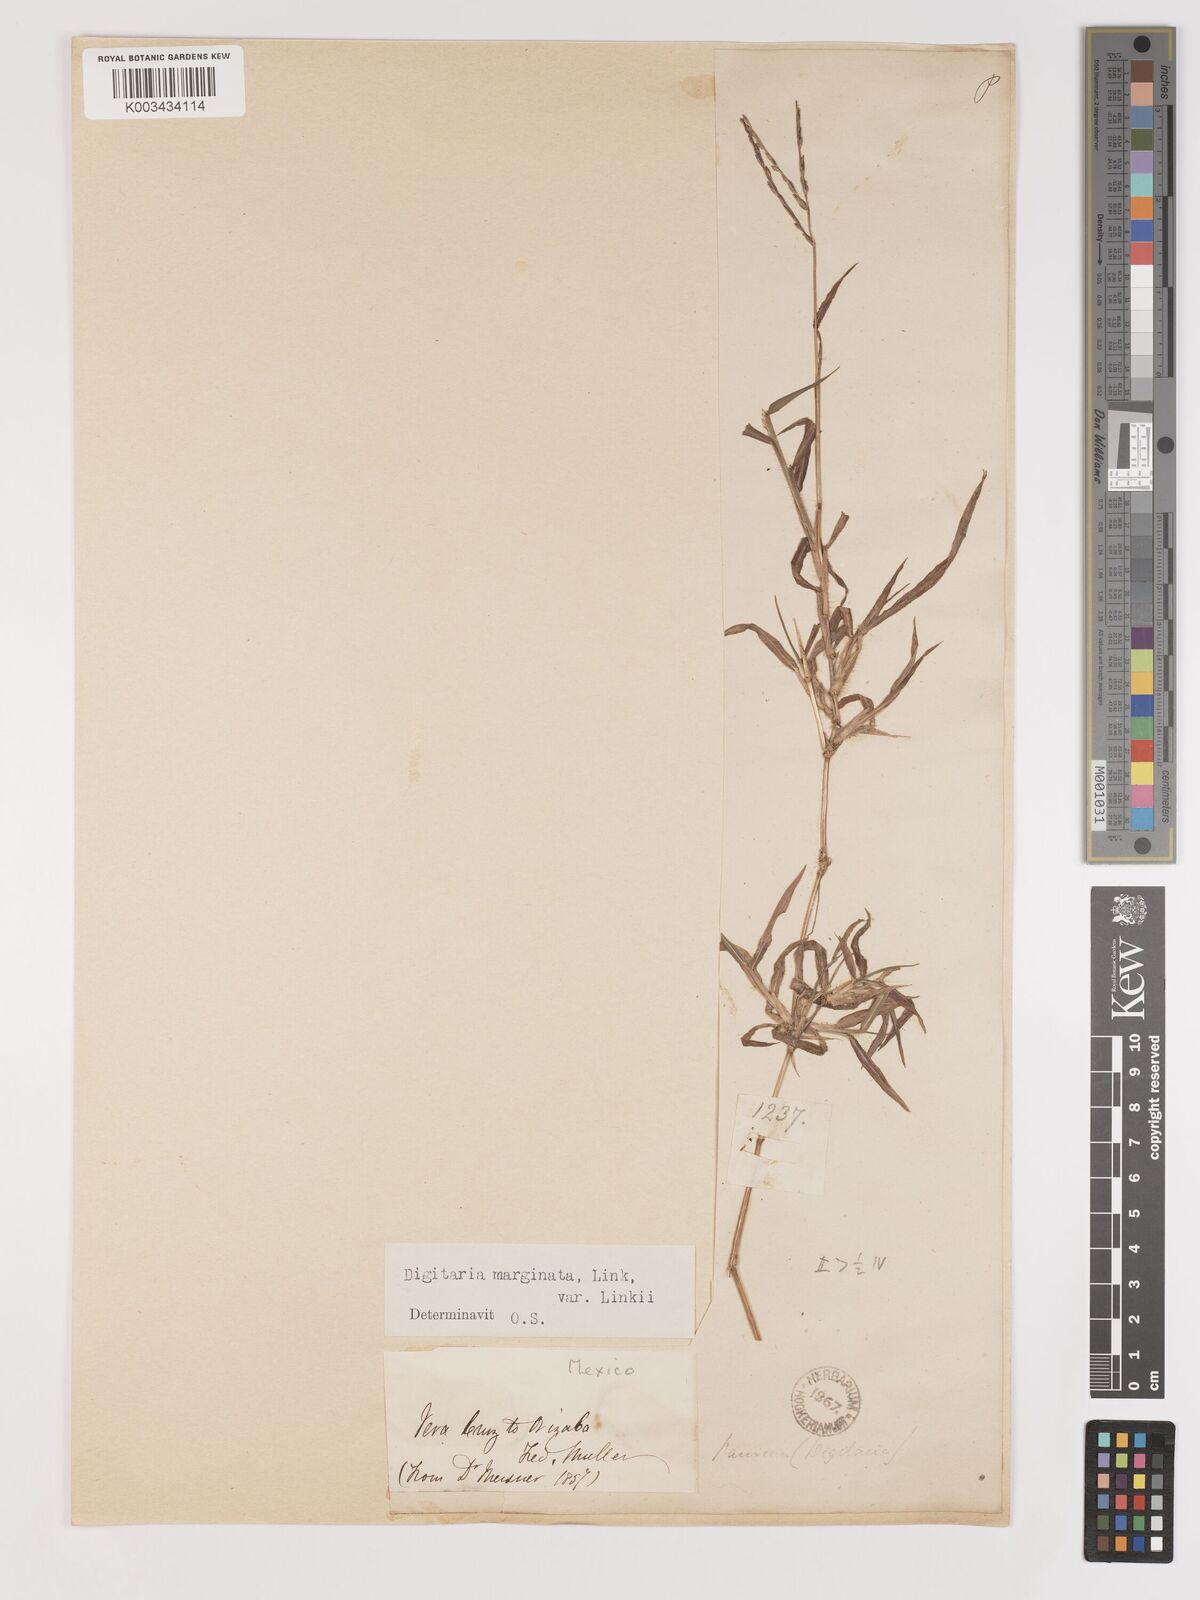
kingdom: Plantae
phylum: Tracheophyta
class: Liliopsida
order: Poales
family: Poaceae
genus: Digitaria
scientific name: Digitaria ciliaris
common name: Tropical finger-grass
